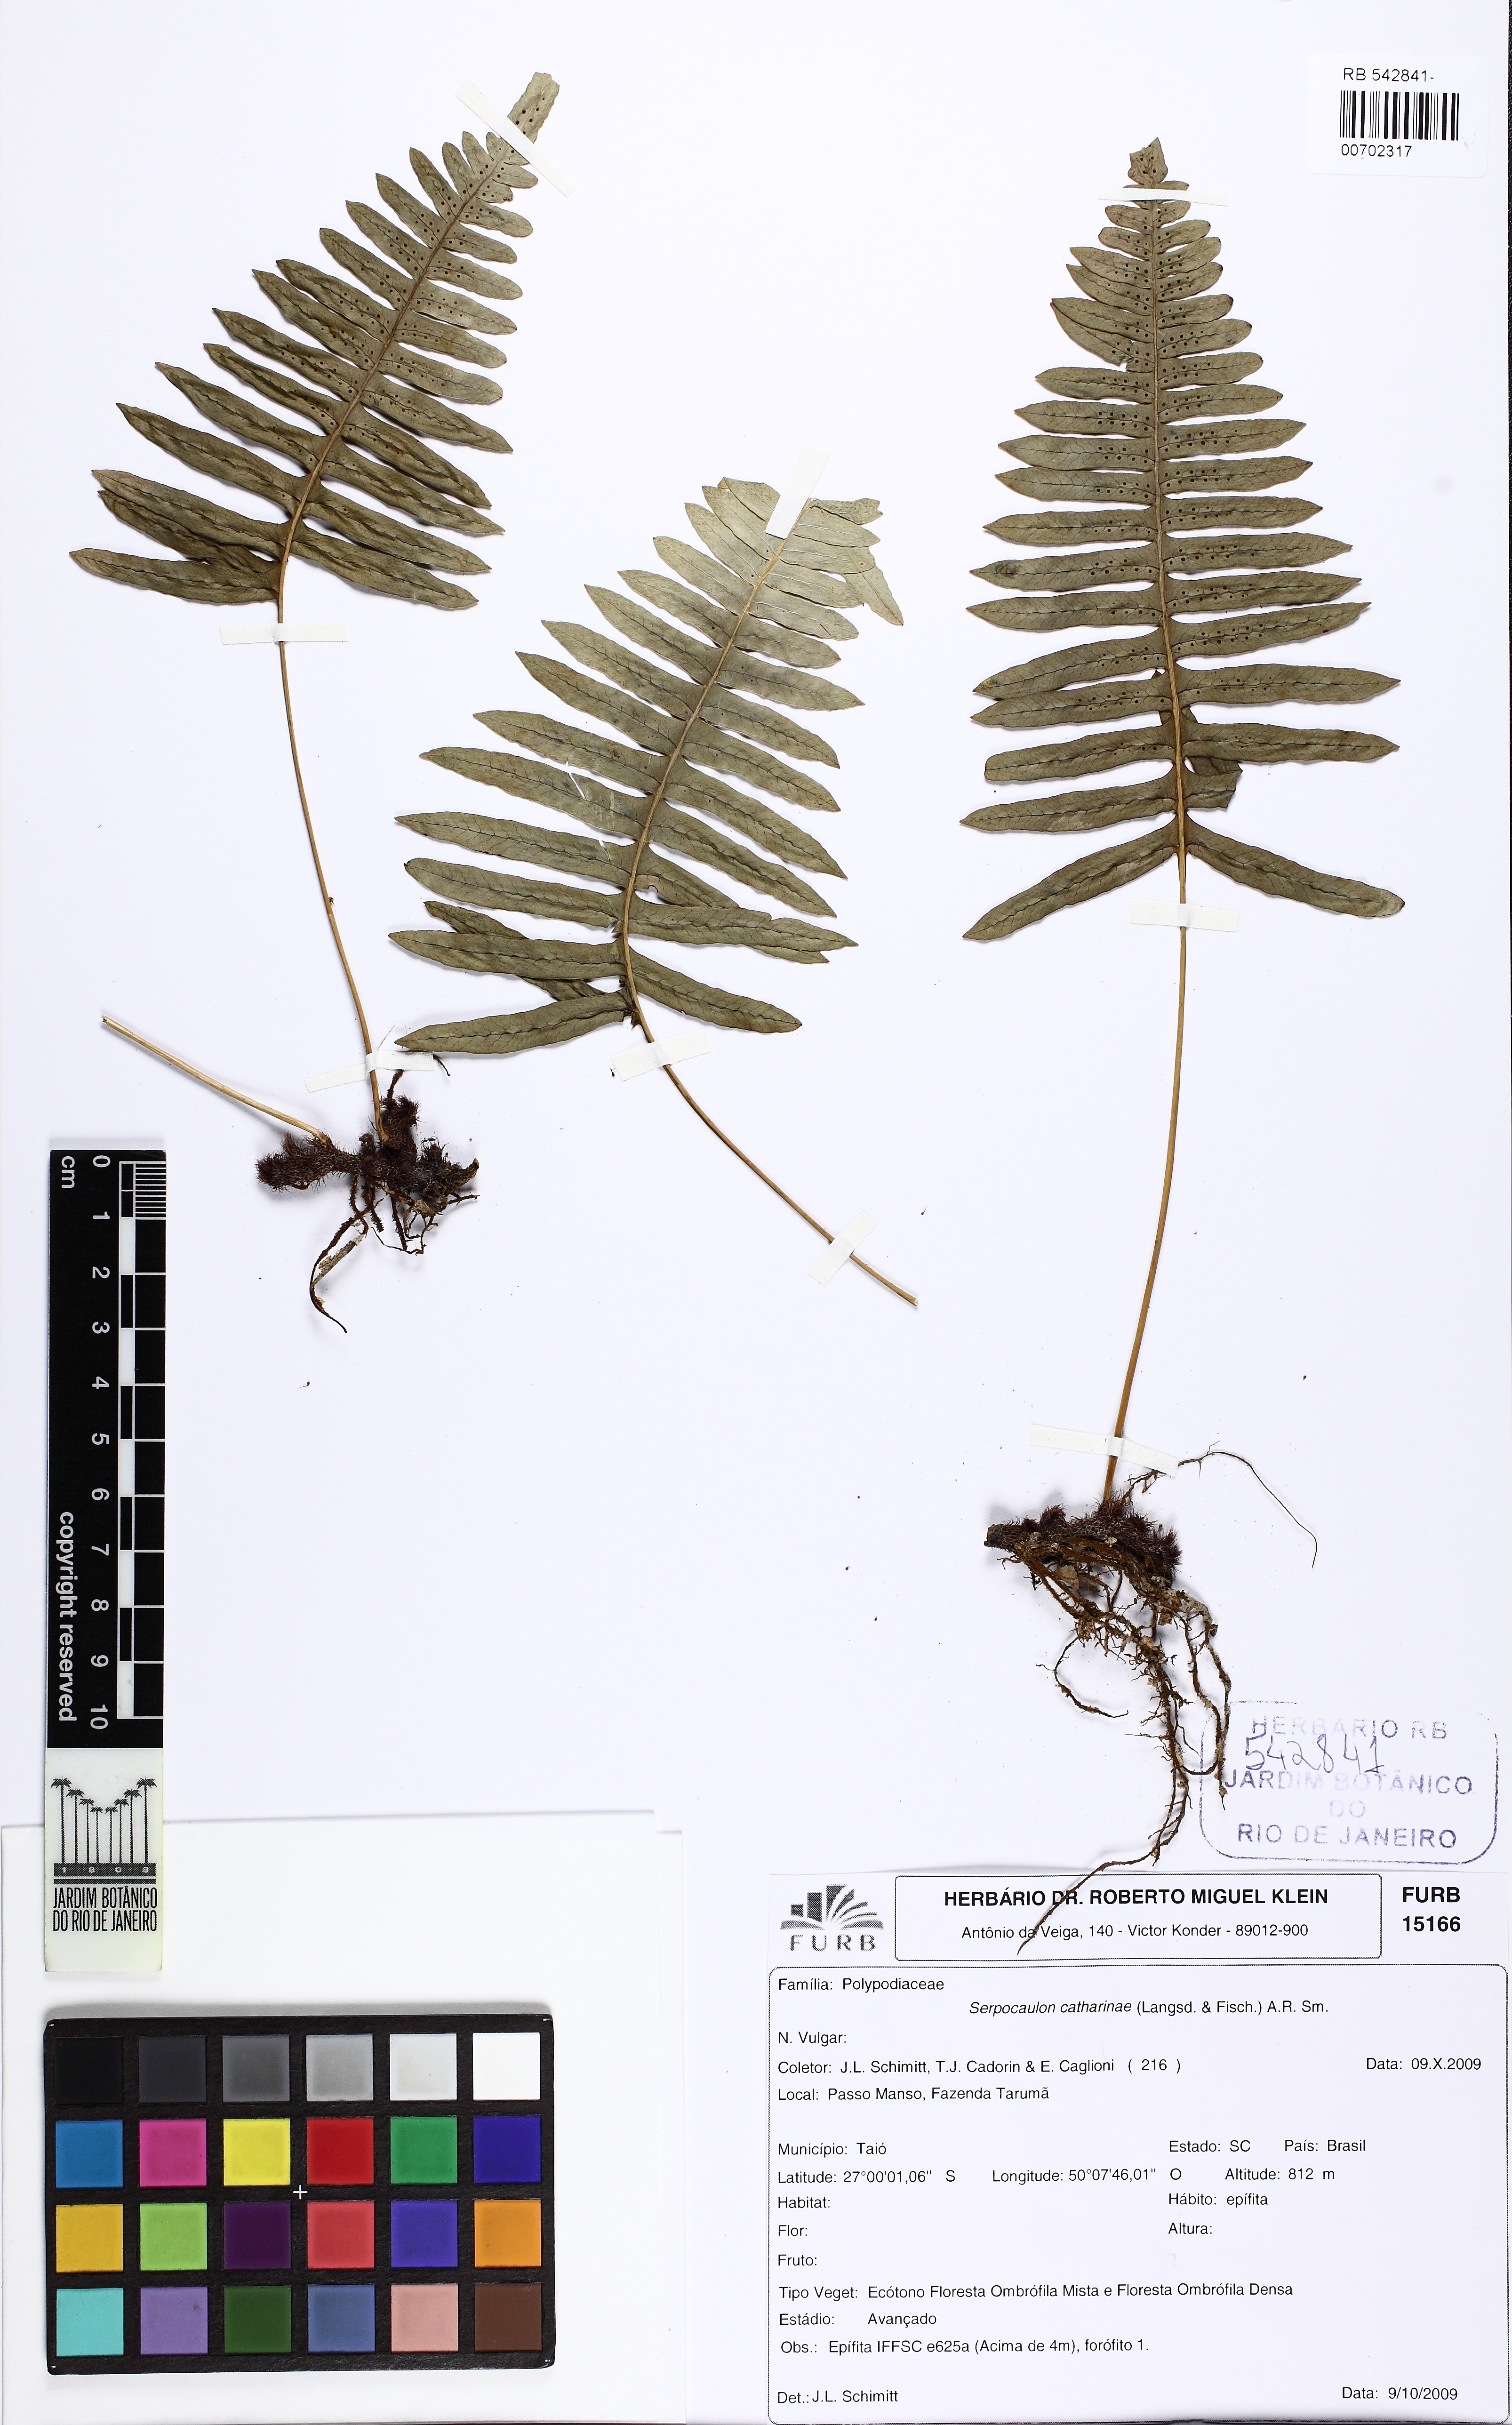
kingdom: Plantae
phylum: Tracheophyta
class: Polypodiopsida
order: Polypodiales
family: Polypodiaceae
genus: Serpocaulon
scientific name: Serpocaulon catharinae
